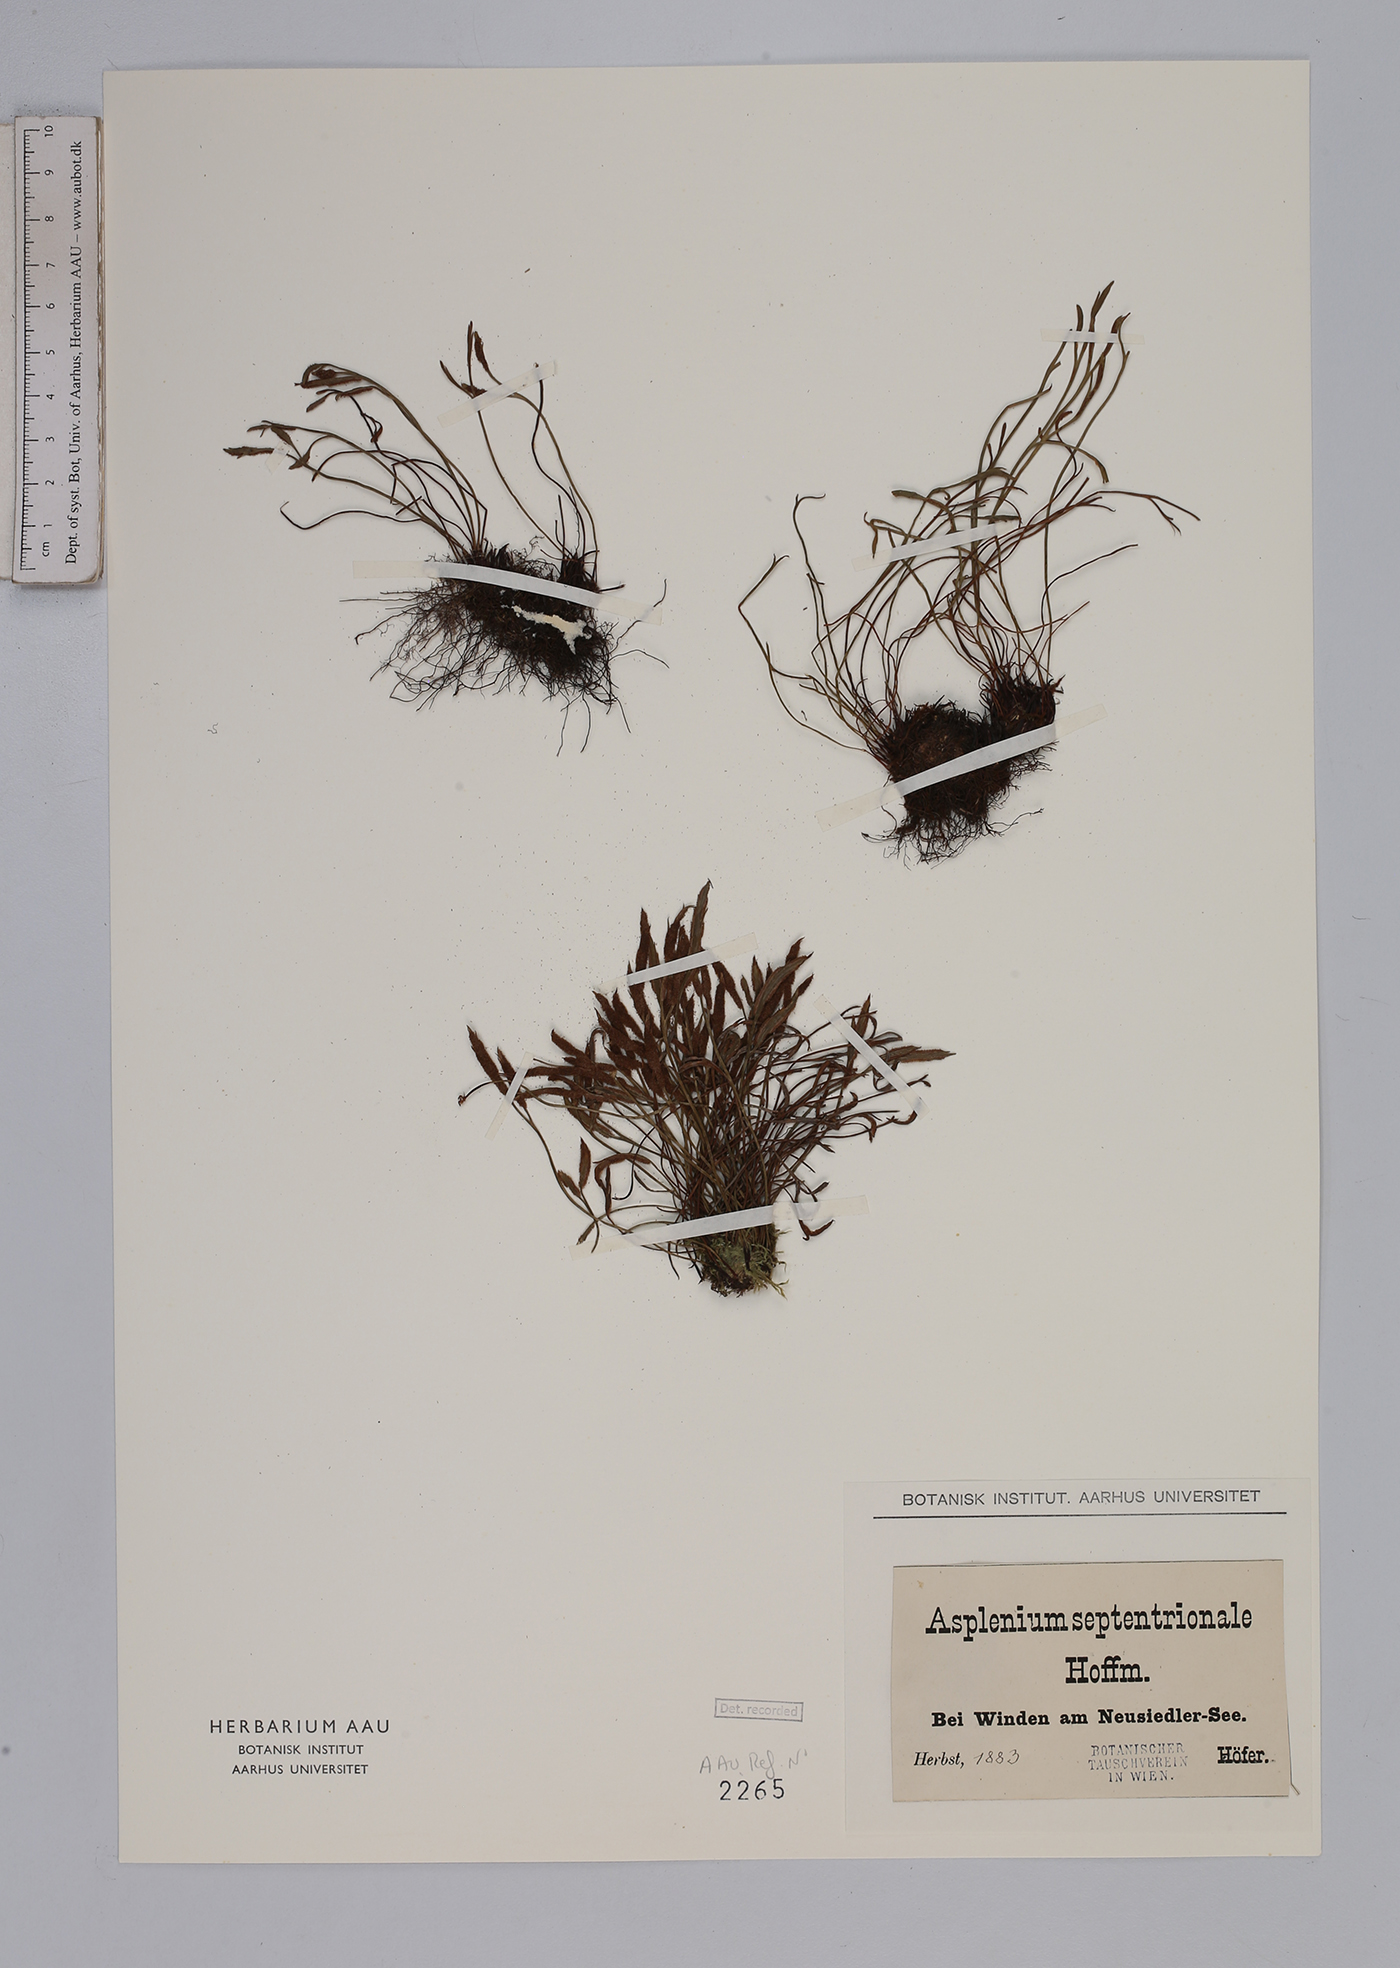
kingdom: Plantae
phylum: Tracheophyta
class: Polypodiopsida
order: Polypodiales
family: Aspleniaceae
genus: Asplenium
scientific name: Asplenium septentrionale
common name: Forked spleenwort
